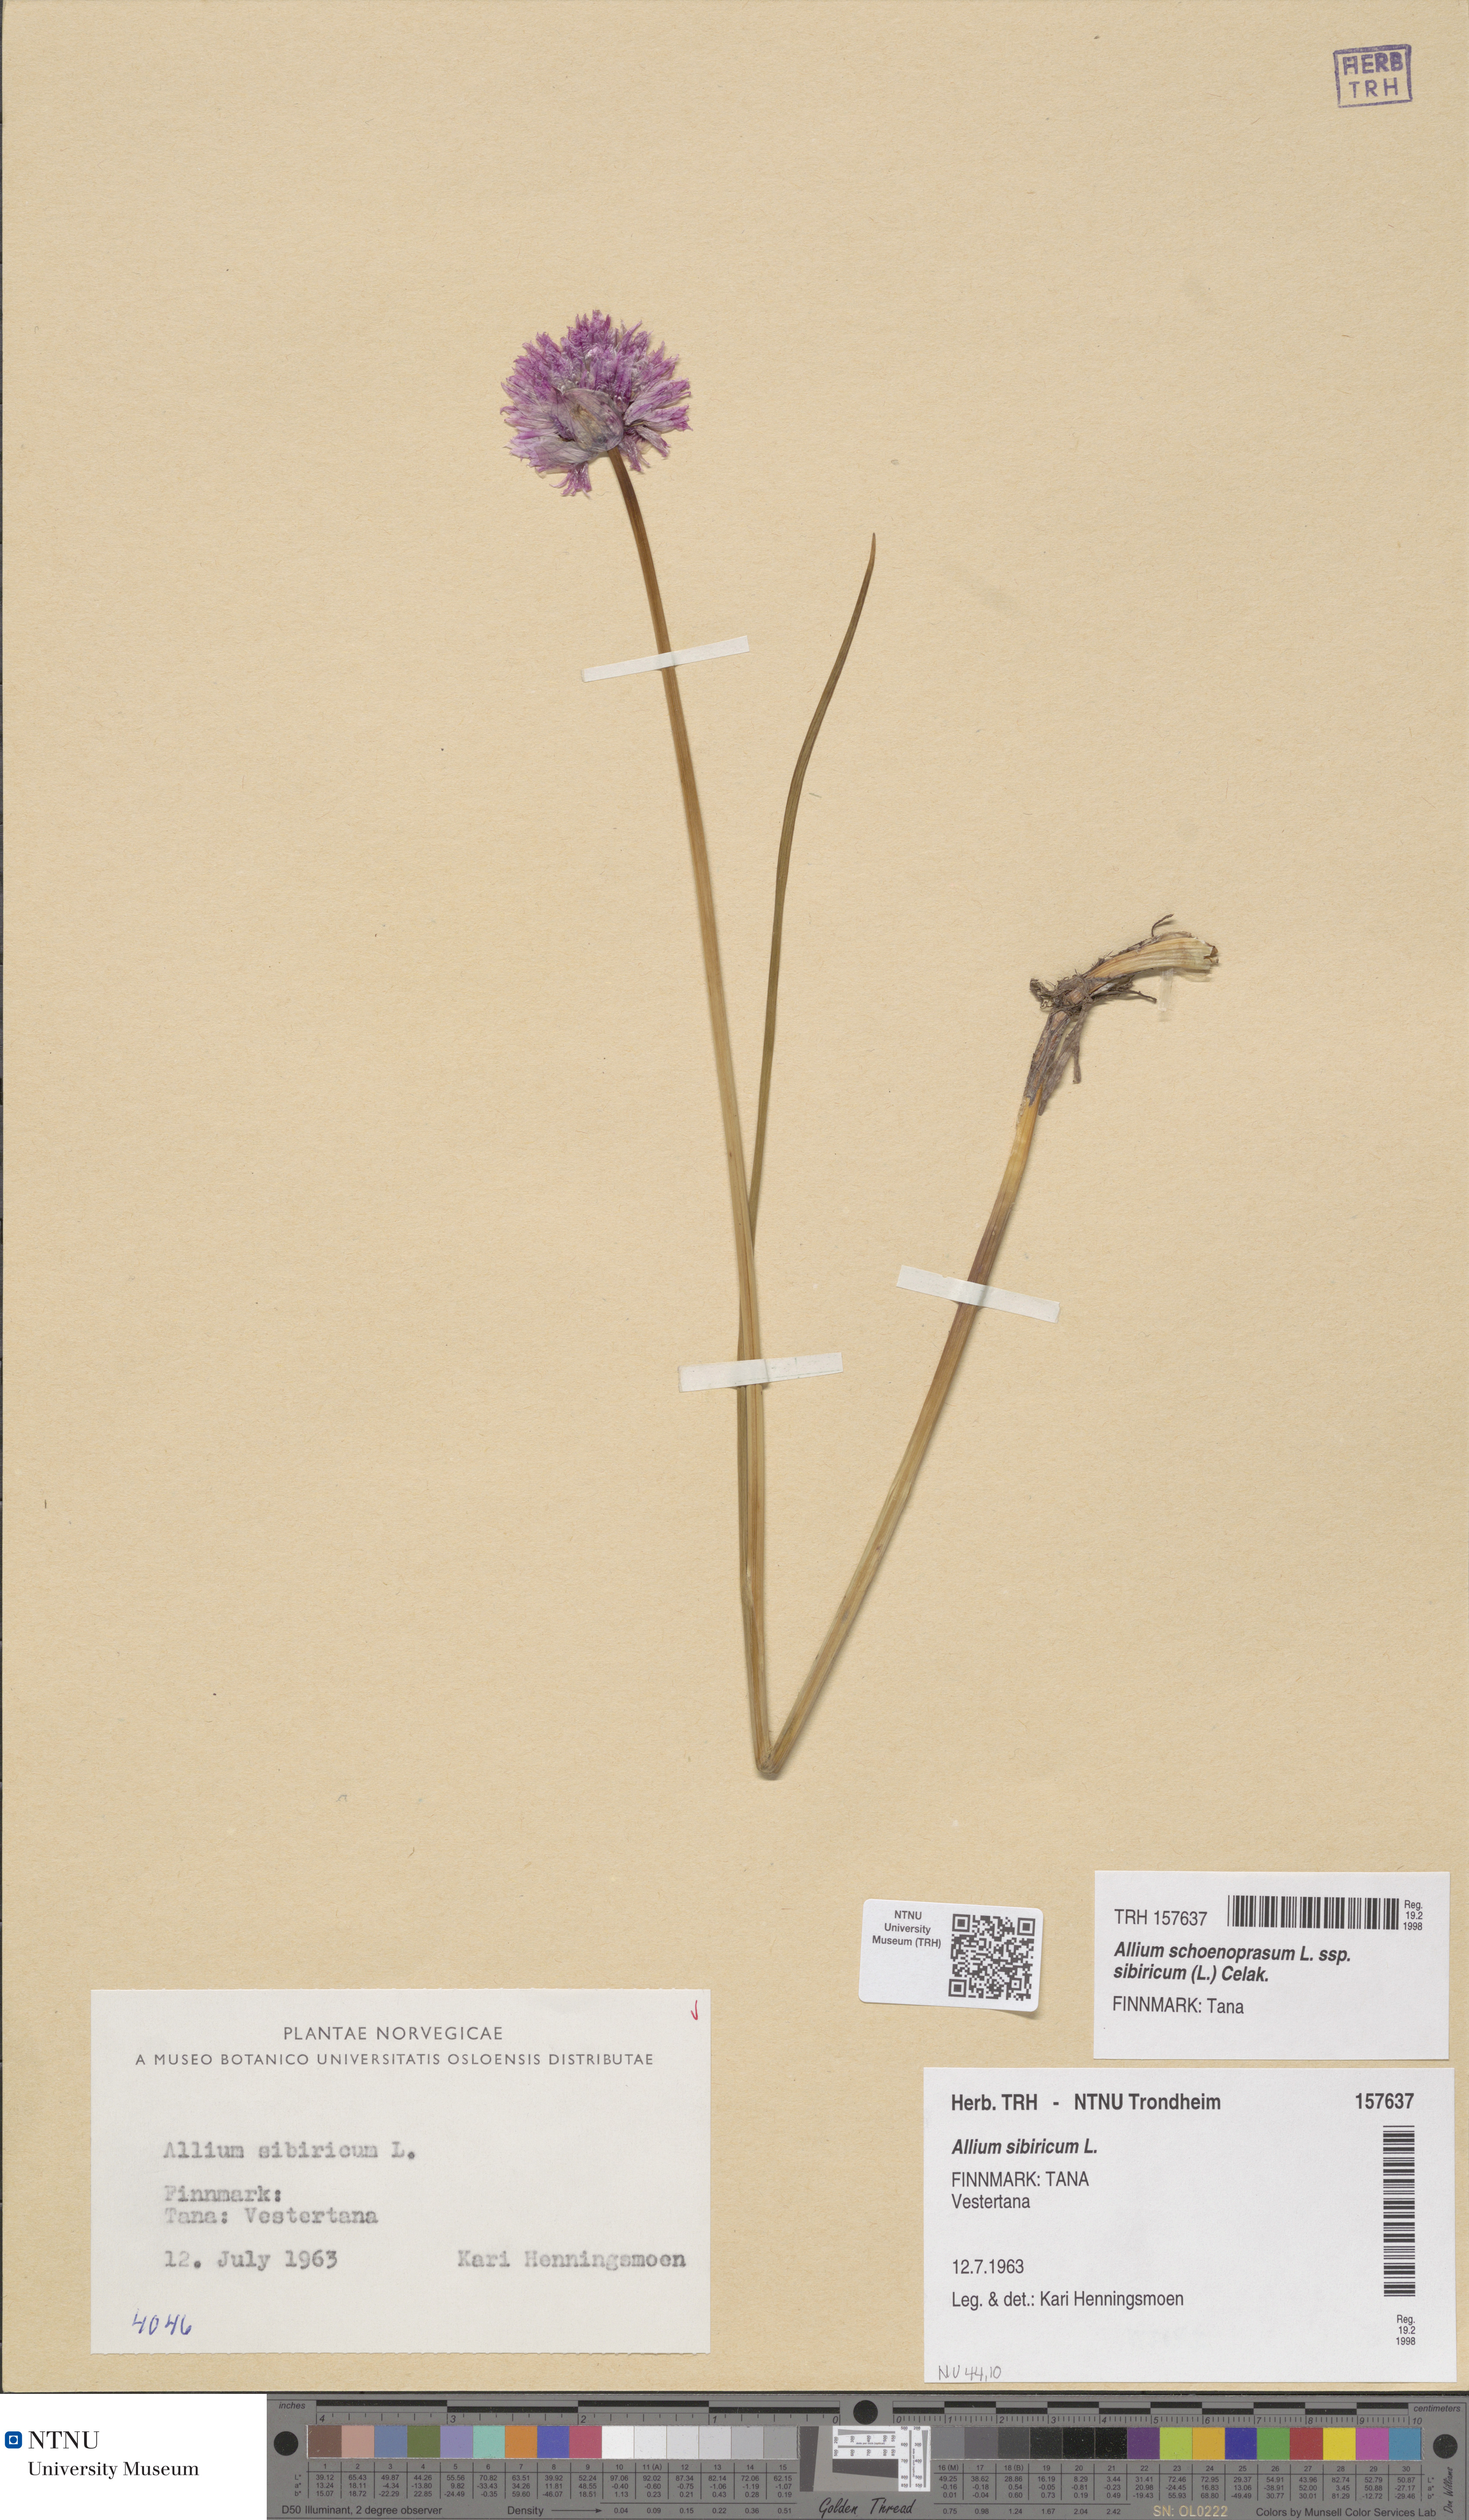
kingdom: Plantae
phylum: Tracheophyta
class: Liliopsida
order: Asparagales
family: Amaryllidaceae
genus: Allium
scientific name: Allium schoenoprasum
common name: Chives
